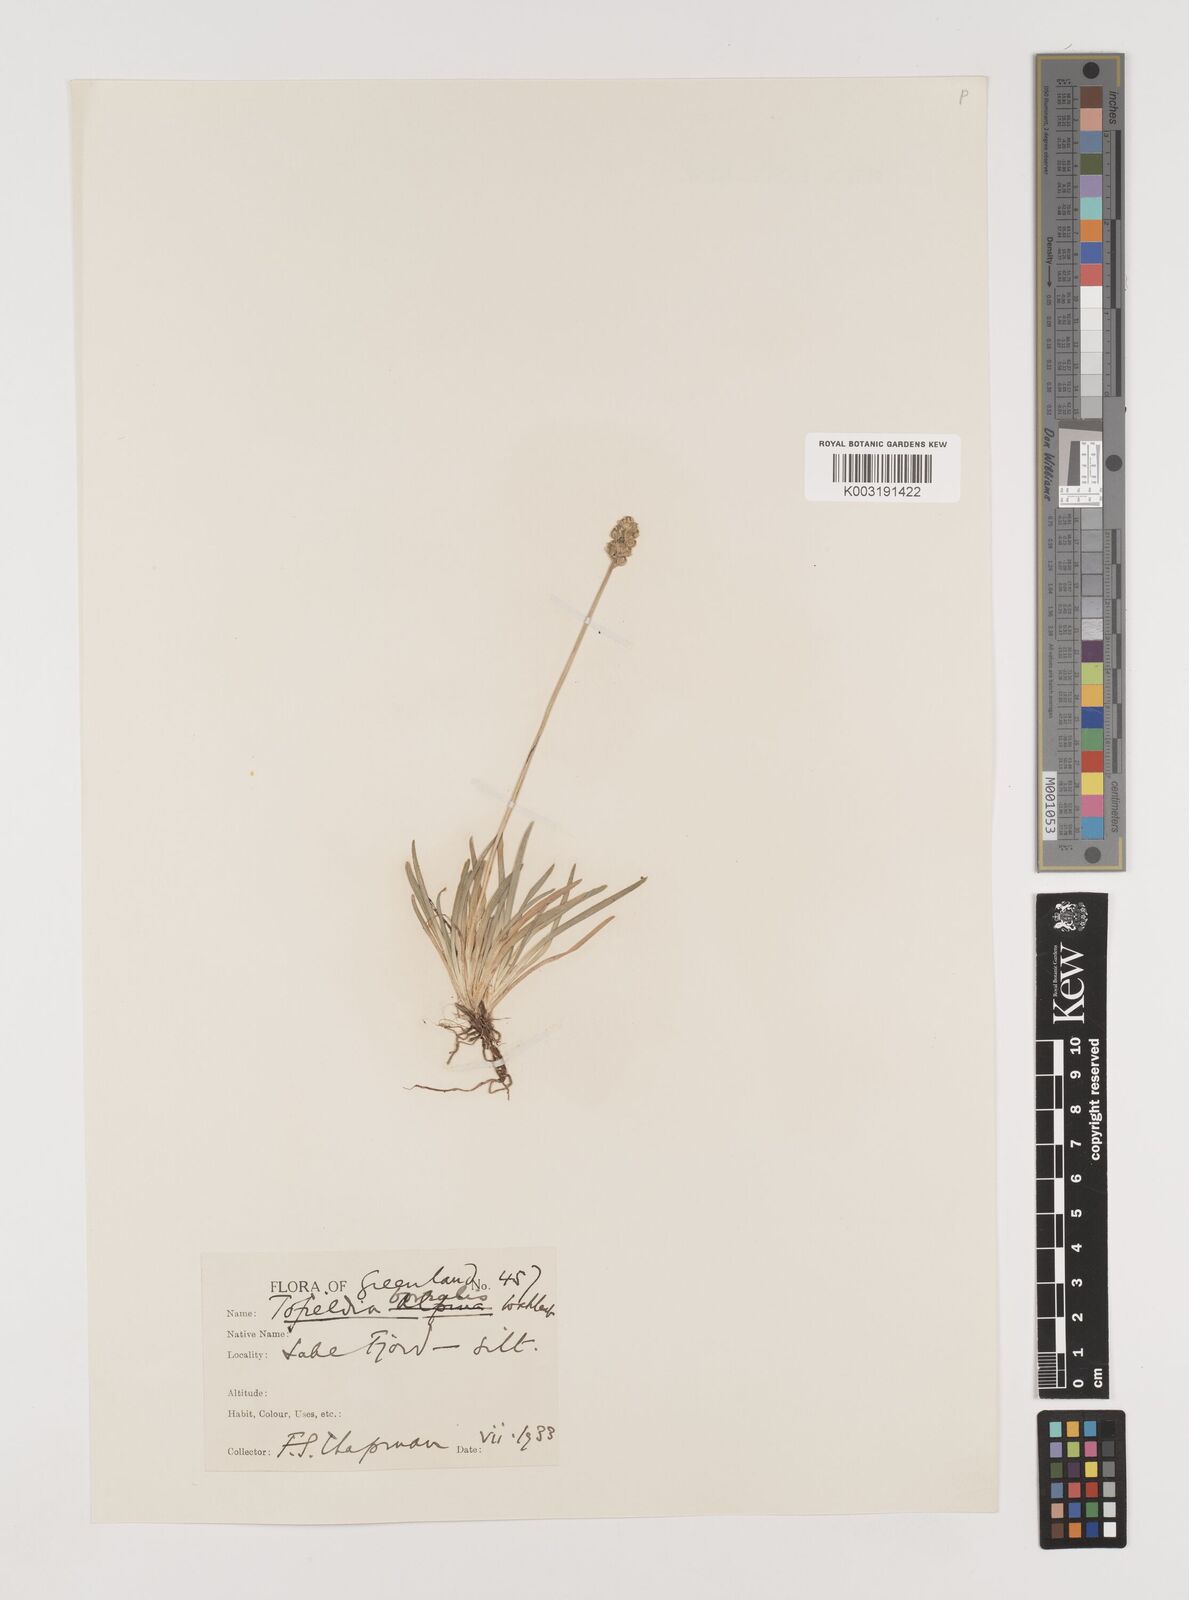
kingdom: Plantae
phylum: Tracheophyta
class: Liliopsida
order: Alismatales
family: Tofieldiaceae
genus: Tofieldia
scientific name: Tofieldia pusilla
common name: Scottish false asphodel
